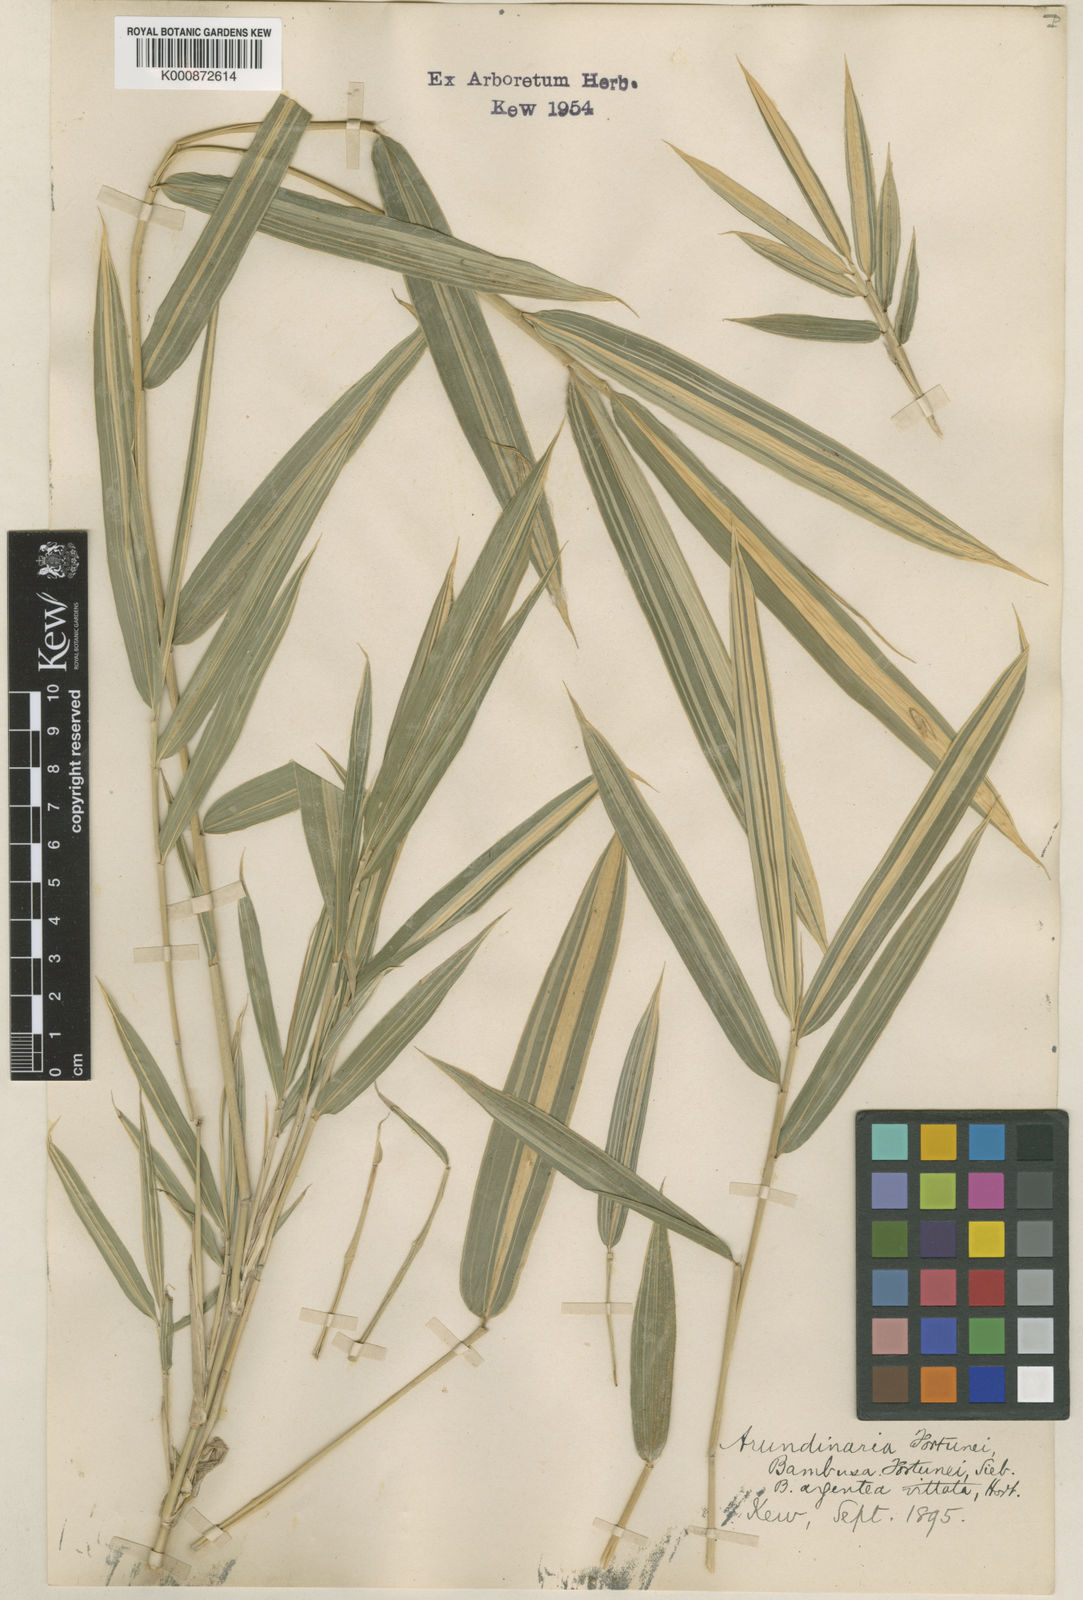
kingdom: Plantae
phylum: Tracheophyta
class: Liliopsida
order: Poales
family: Poaceae
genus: Arundinaria
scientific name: Arundinaria
